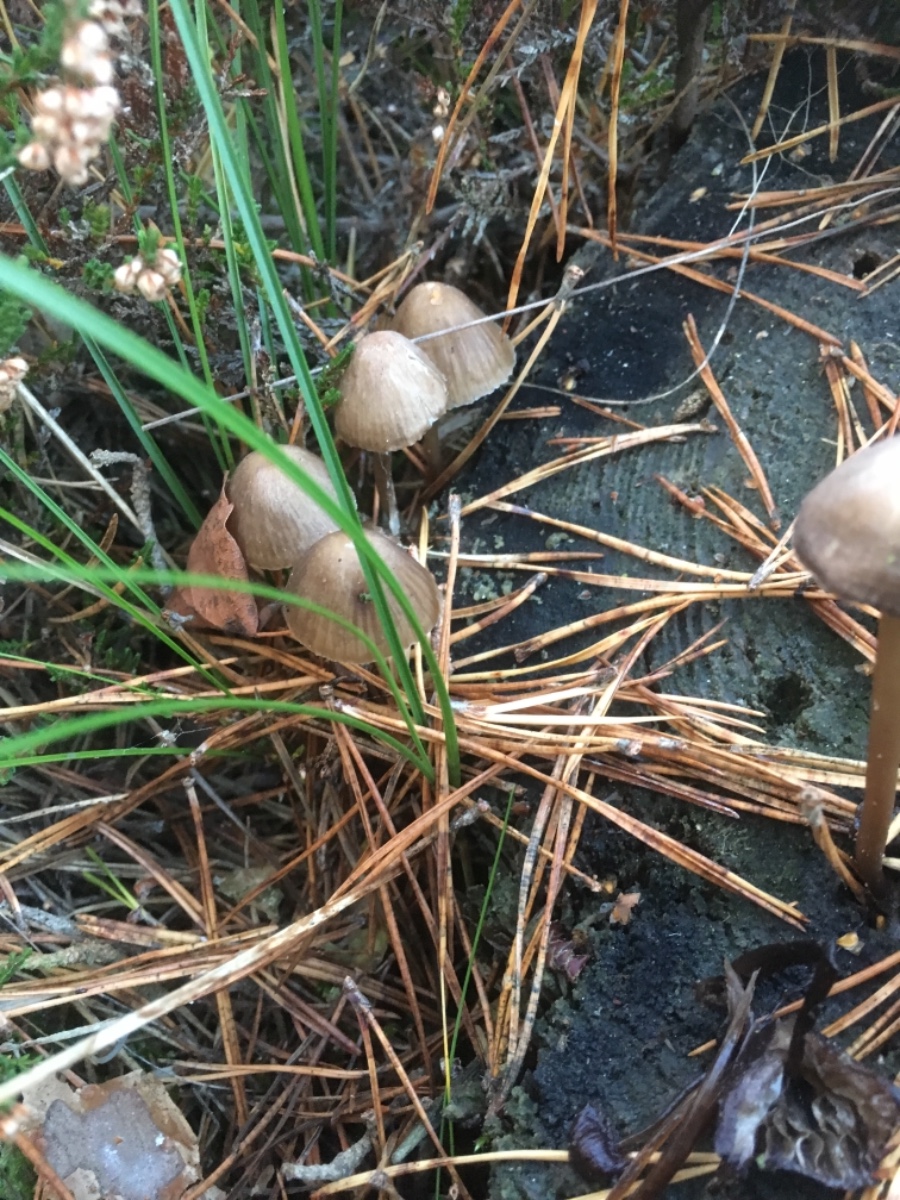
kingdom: Fungi
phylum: Basidiomycota
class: Agaricomycetes
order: Agaricales
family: Mycenaceae
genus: Mycena
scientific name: Mycena stipata
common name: stinkende huesvamp
